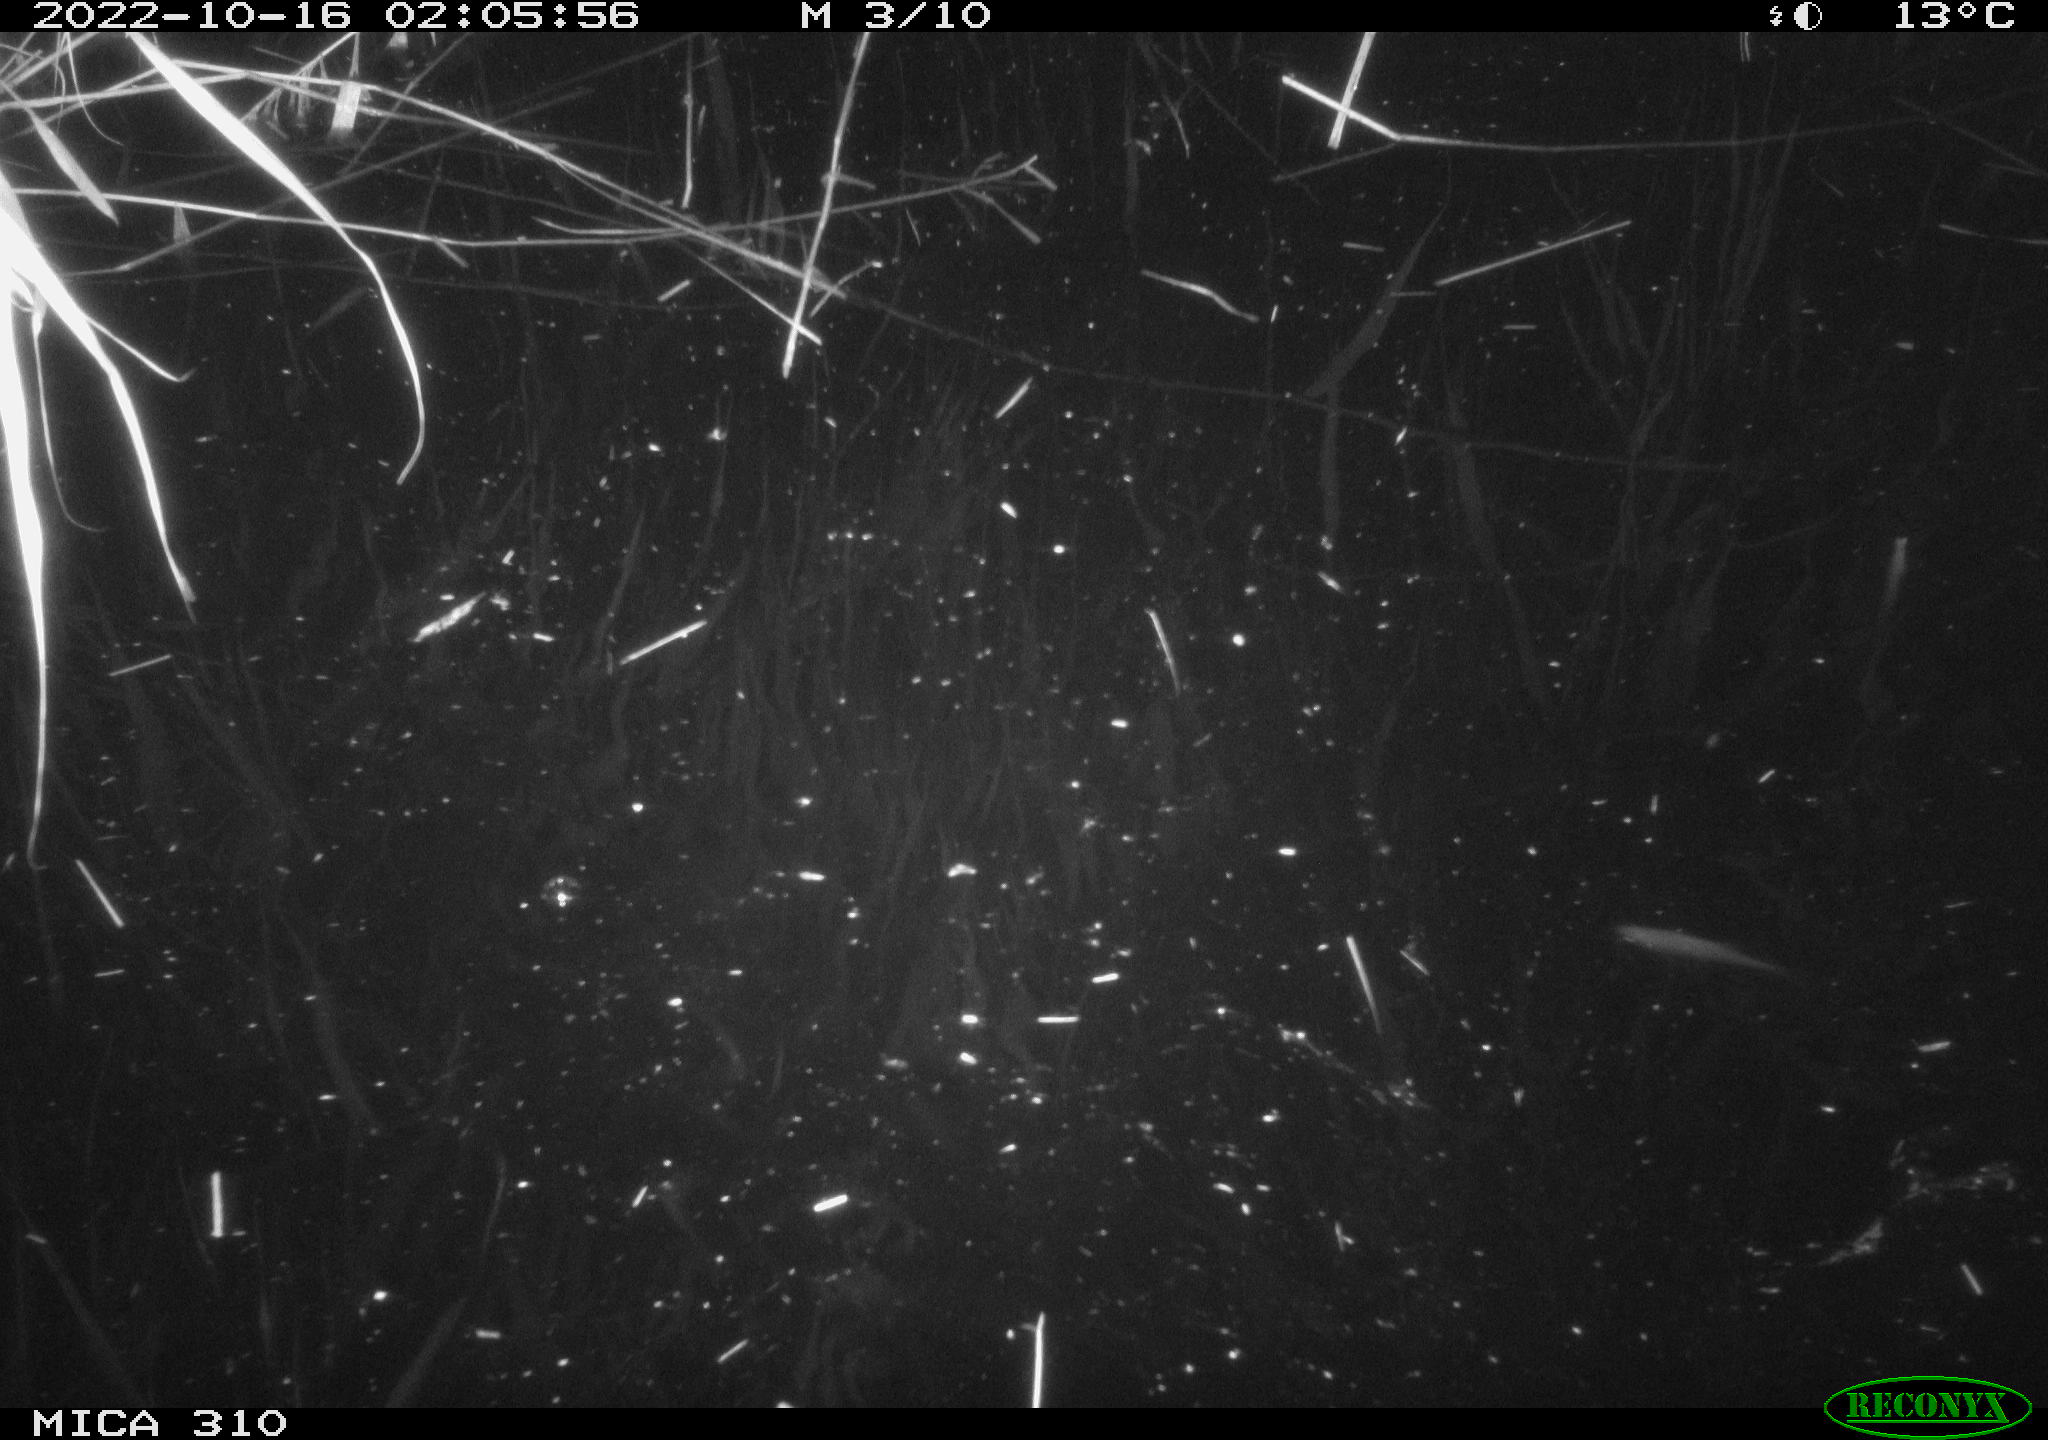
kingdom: Animalia
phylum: Chordata
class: Aves
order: Anseriformes
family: Anatidae
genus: Anas
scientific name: Anas
